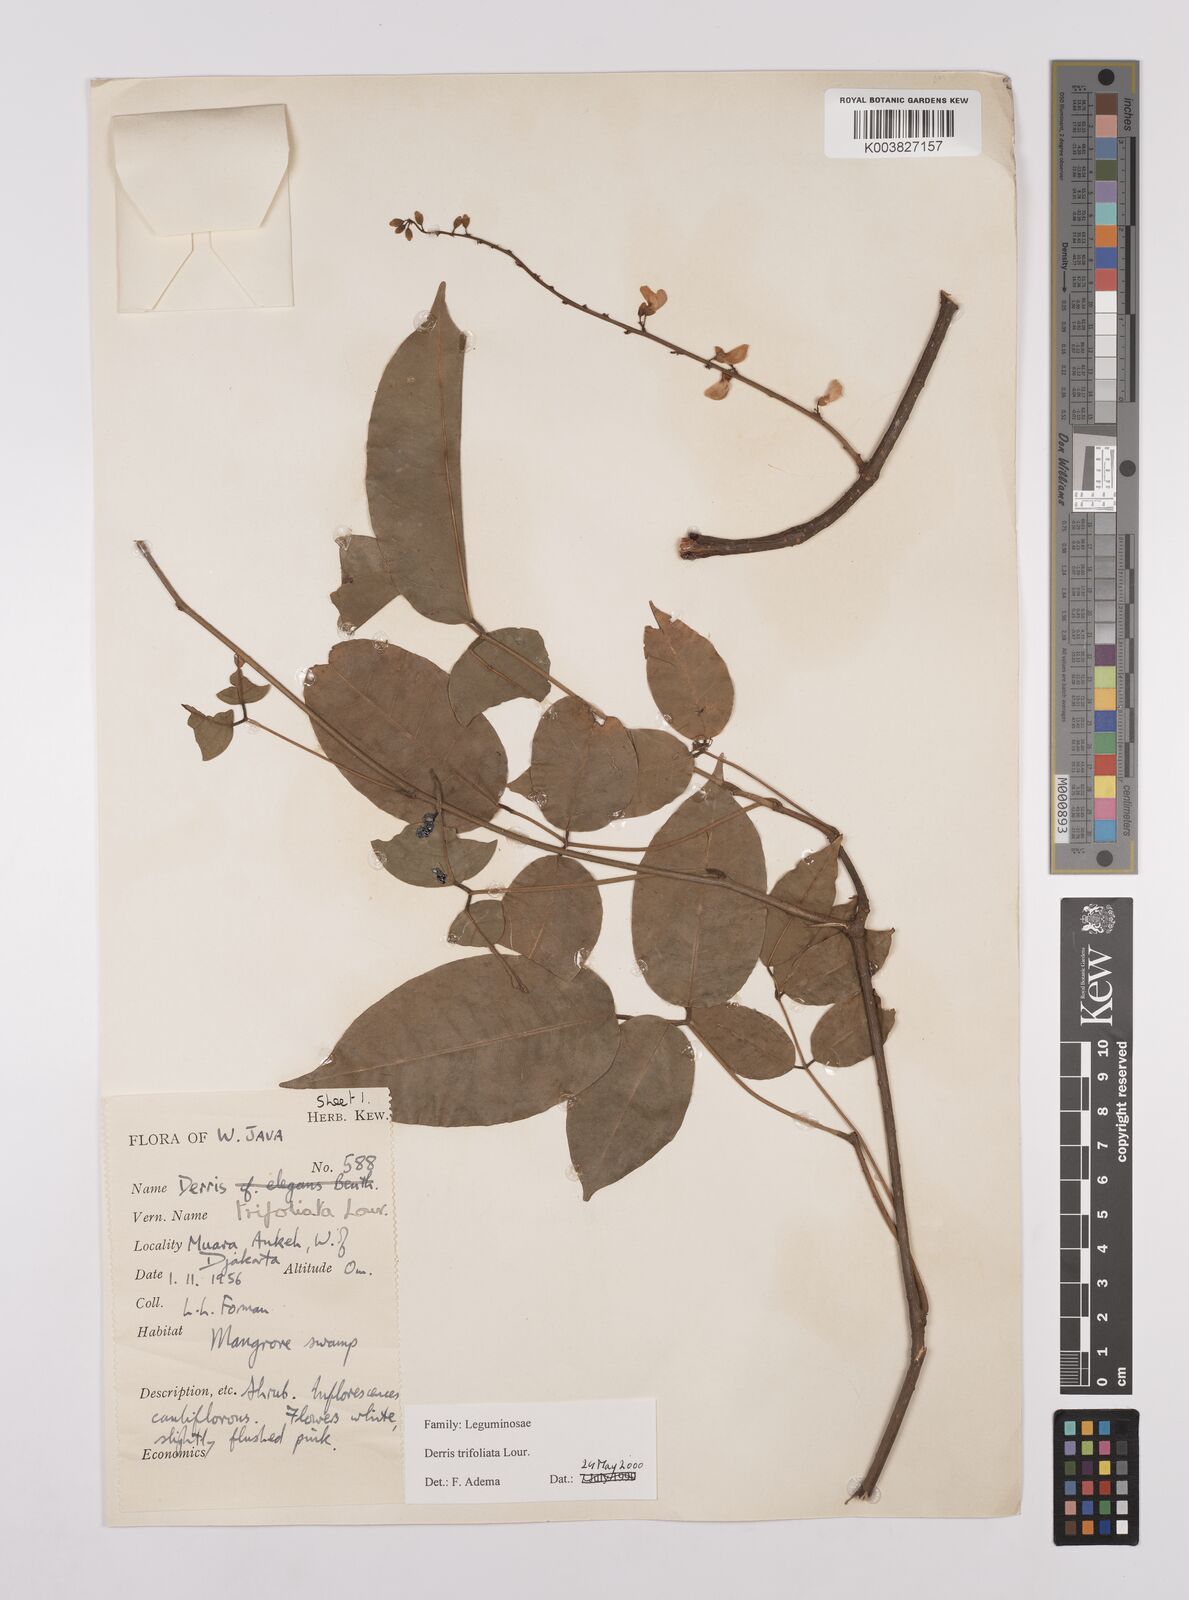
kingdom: Plantae
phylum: Tracheophyta
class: Magnoliopsida
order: Fabales
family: Fabaceae
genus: Derris
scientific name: Derris trifoliata
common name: Three-leaf derris
